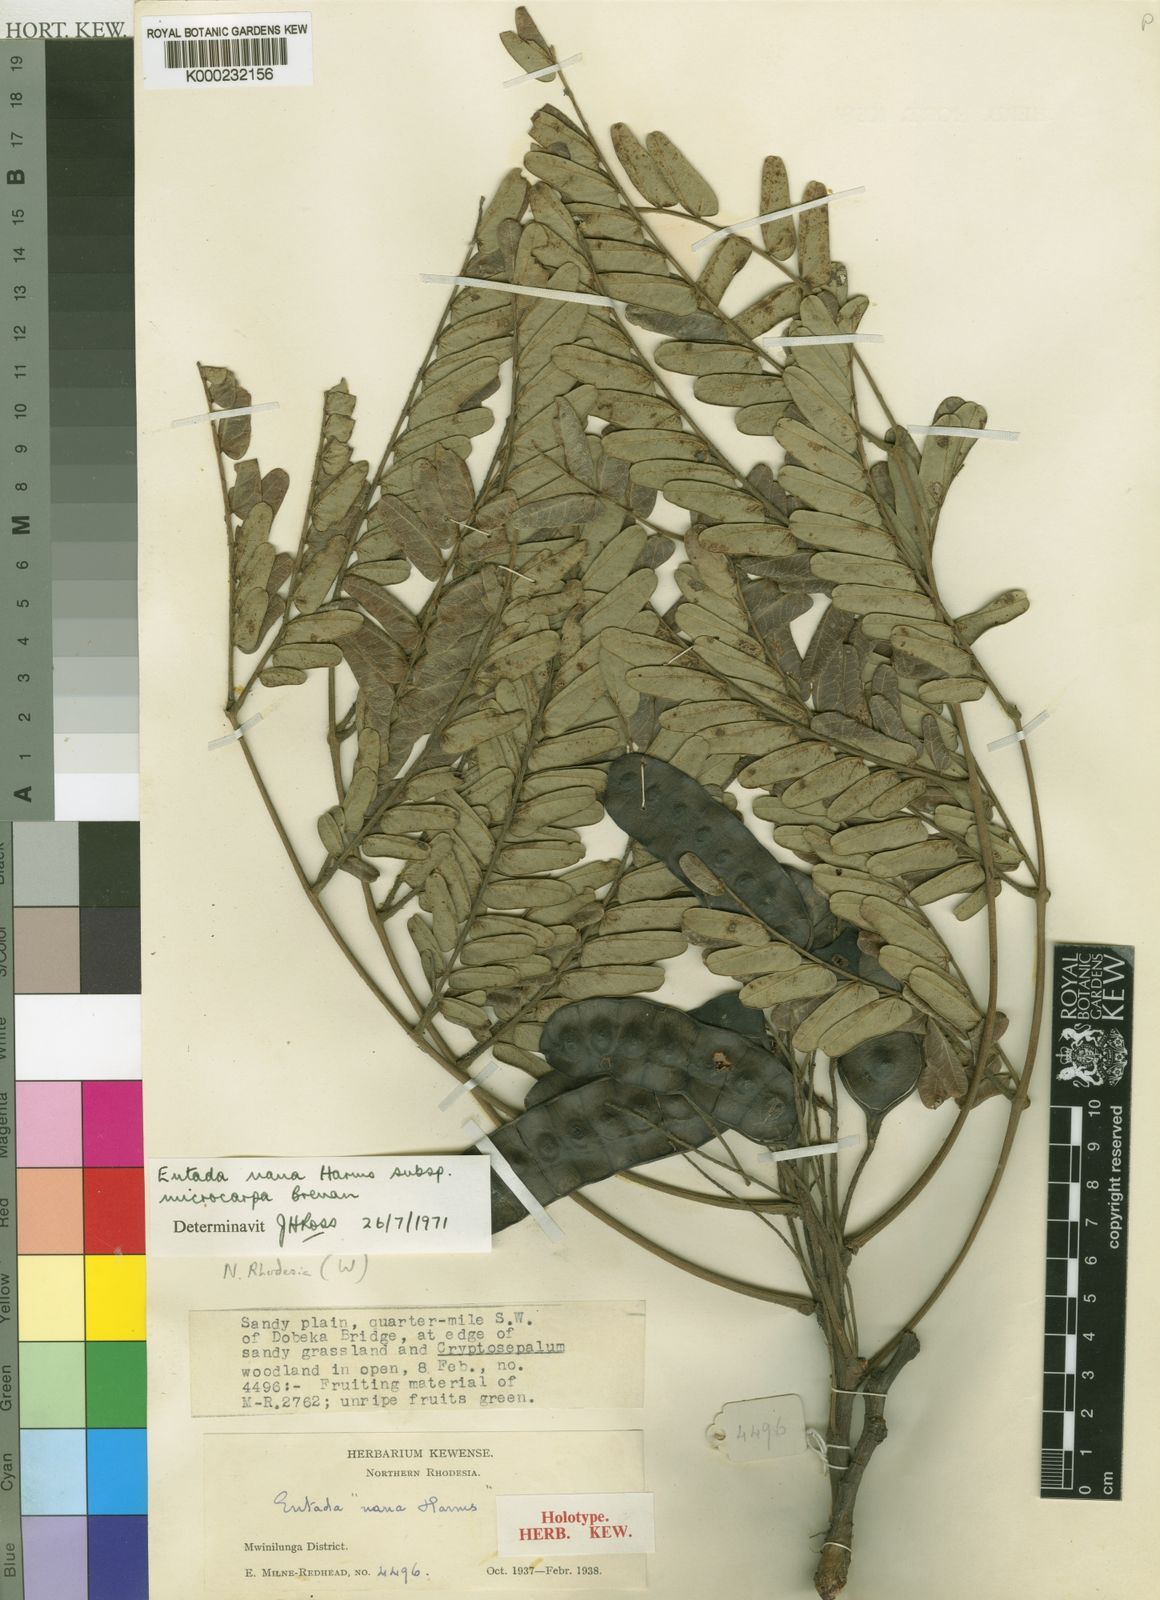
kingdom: Plantae
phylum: Tracheophyta
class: Magnoliopsida
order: Fabales
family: Fabaceae
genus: Entada
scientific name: Entada arenaria
